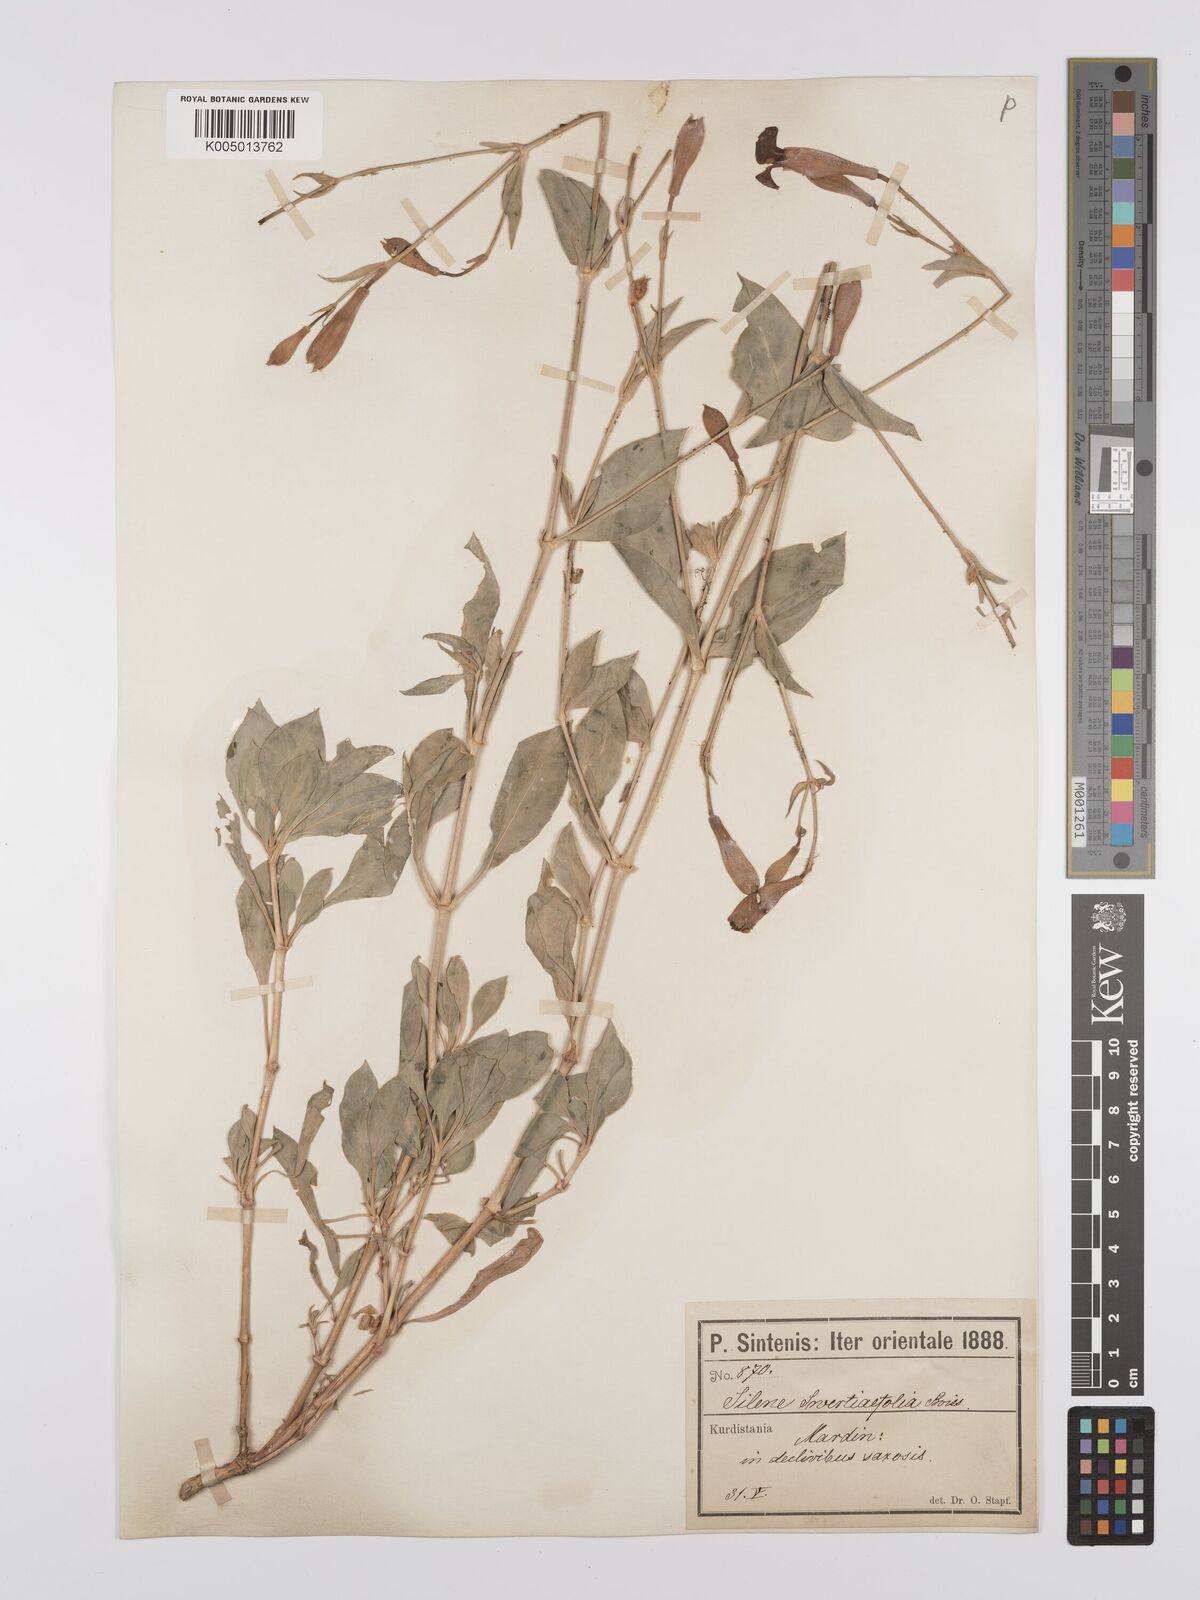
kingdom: Plantae
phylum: Tracheophyta
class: Magnoliopsida
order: Caryophyllales
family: Caryophyllaceae
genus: Silene
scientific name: Silene swertiifolia
